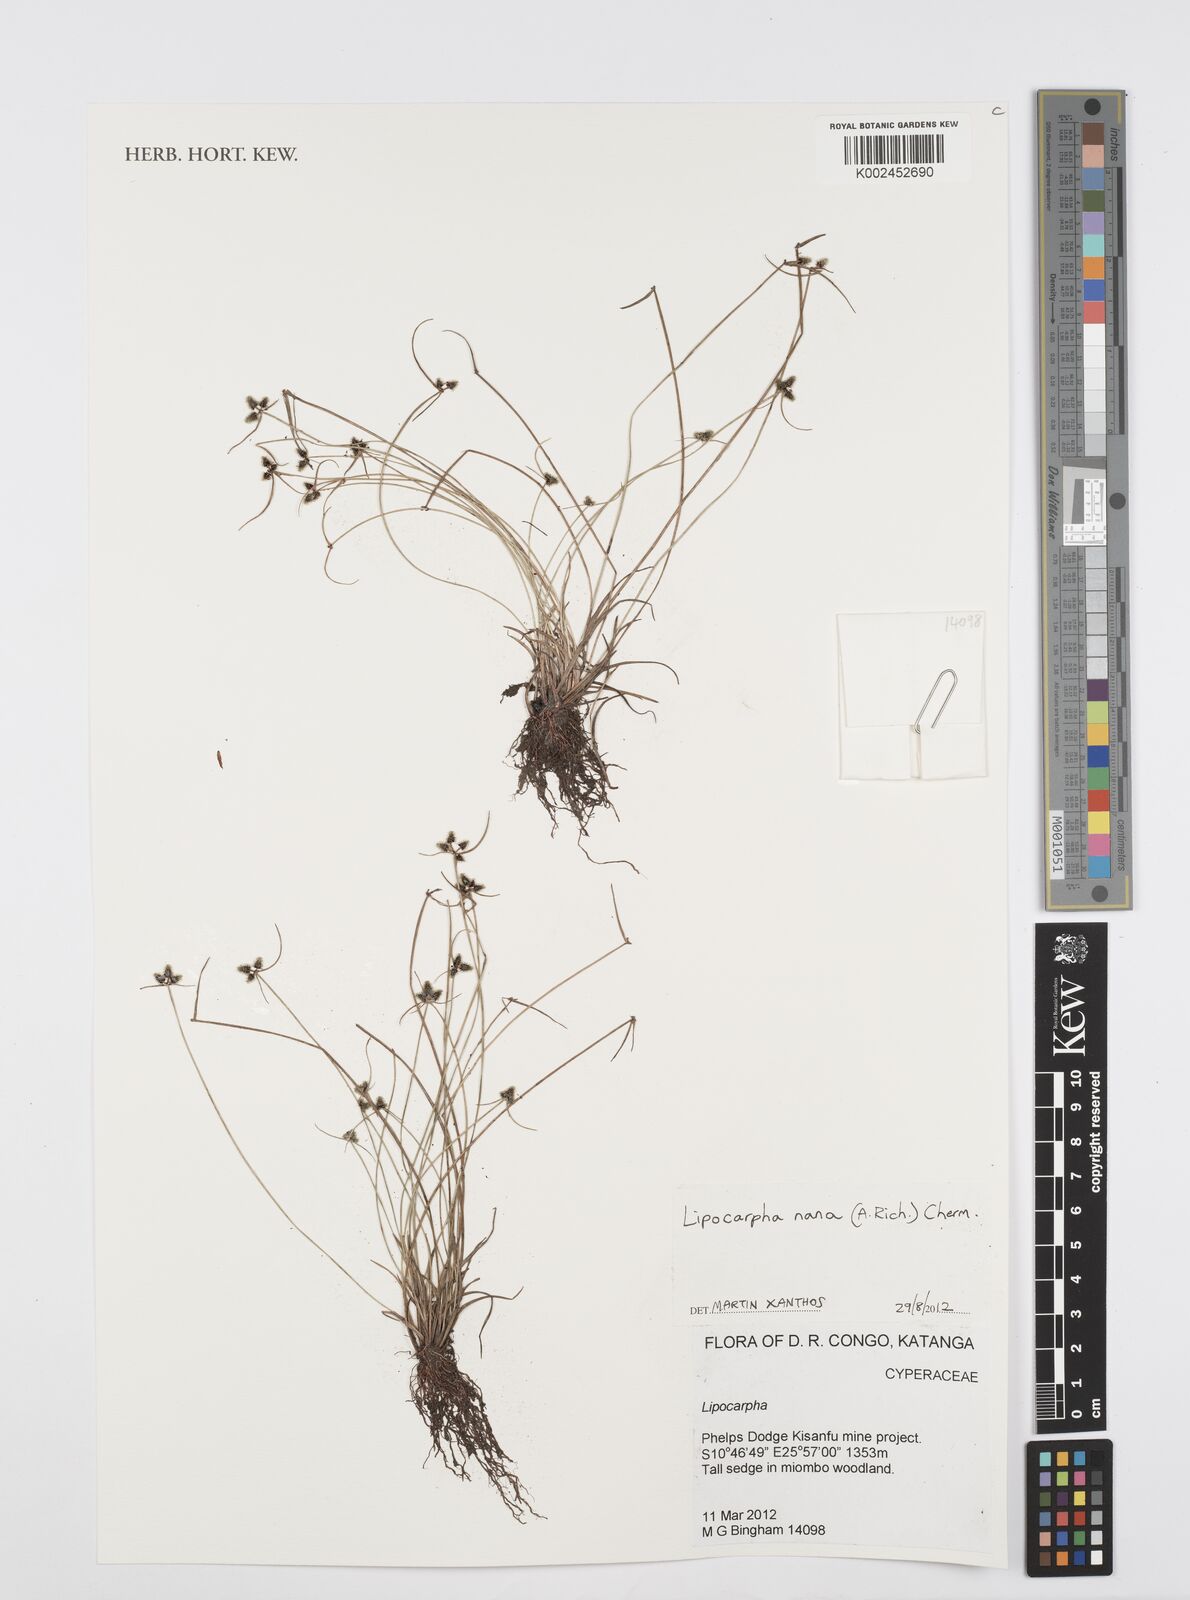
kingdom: Plantae
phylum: Tracheophyta
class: Liliopsida
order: Poales
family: Cyperaceae
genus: Cyperus
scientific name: Cyperus persquarrosus
